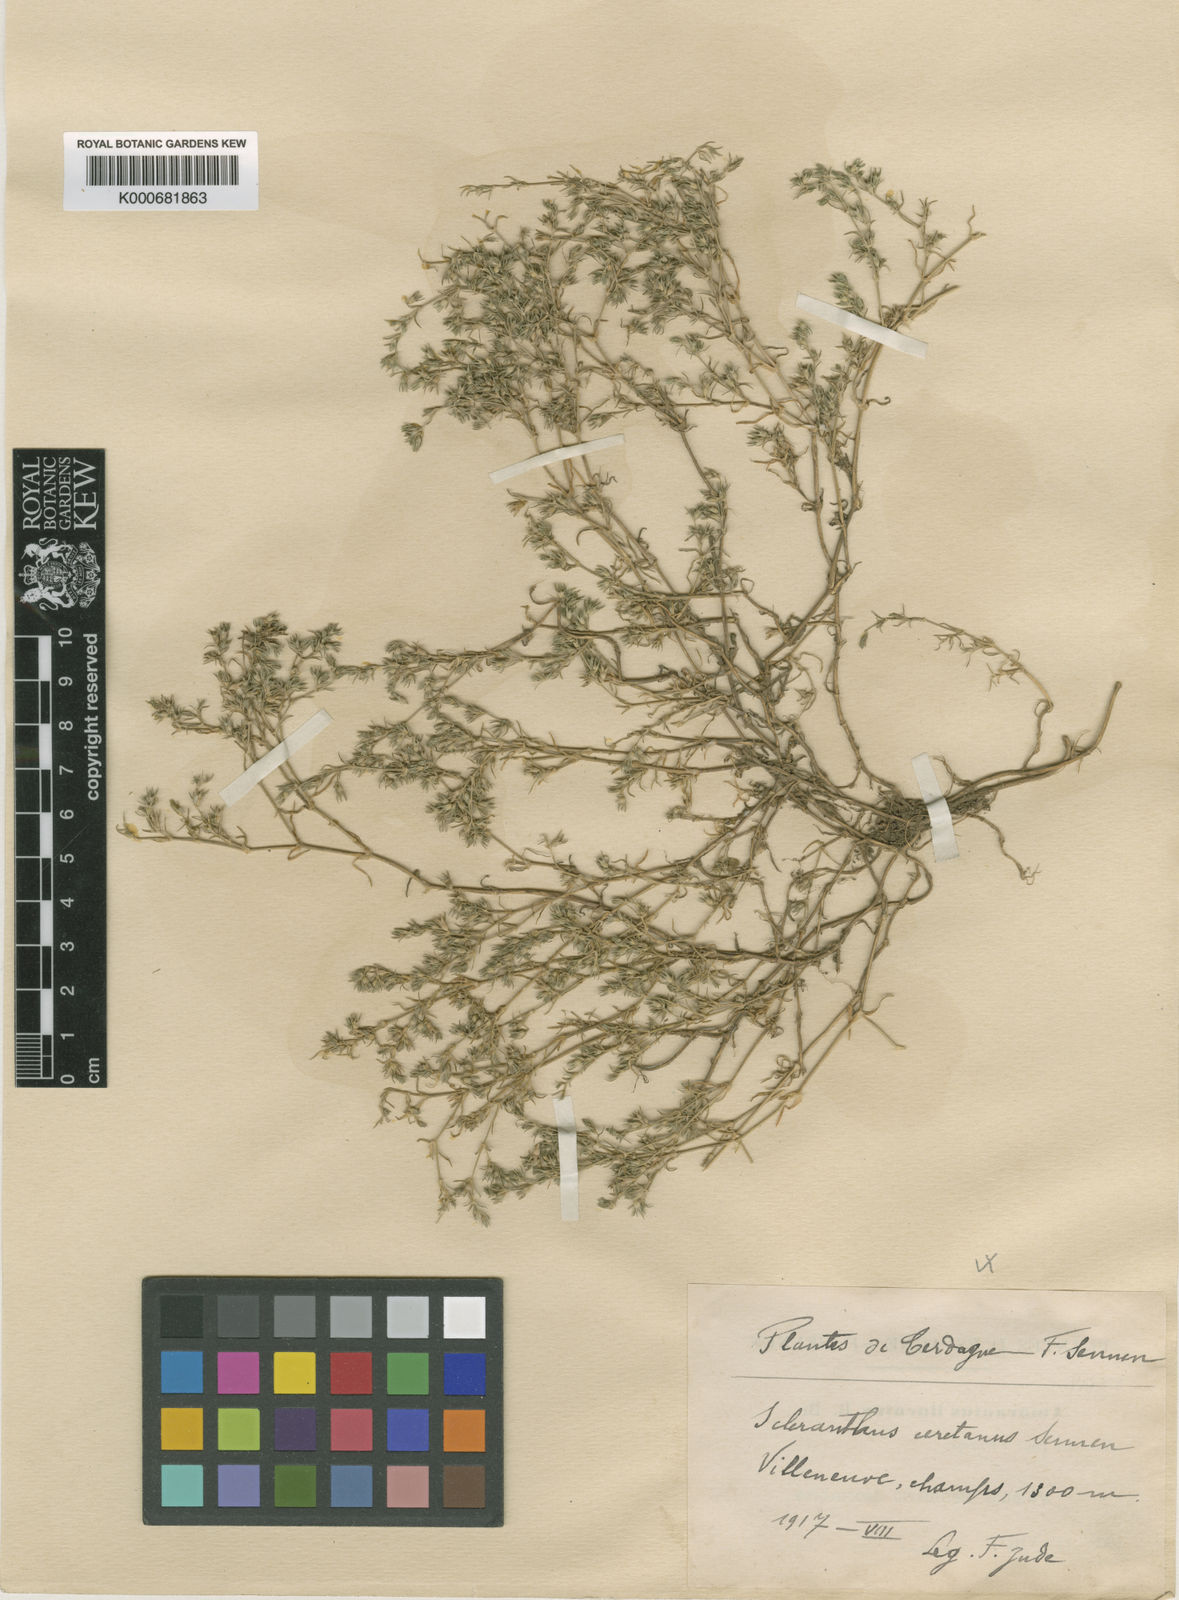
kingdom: Plantae
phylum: Tracheophyta
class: Magnoliopsida
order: Caryophyllales
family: Caryophyllaceae
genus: Scleranthus
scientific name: Scleranthus annuus
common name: Annual knawel
